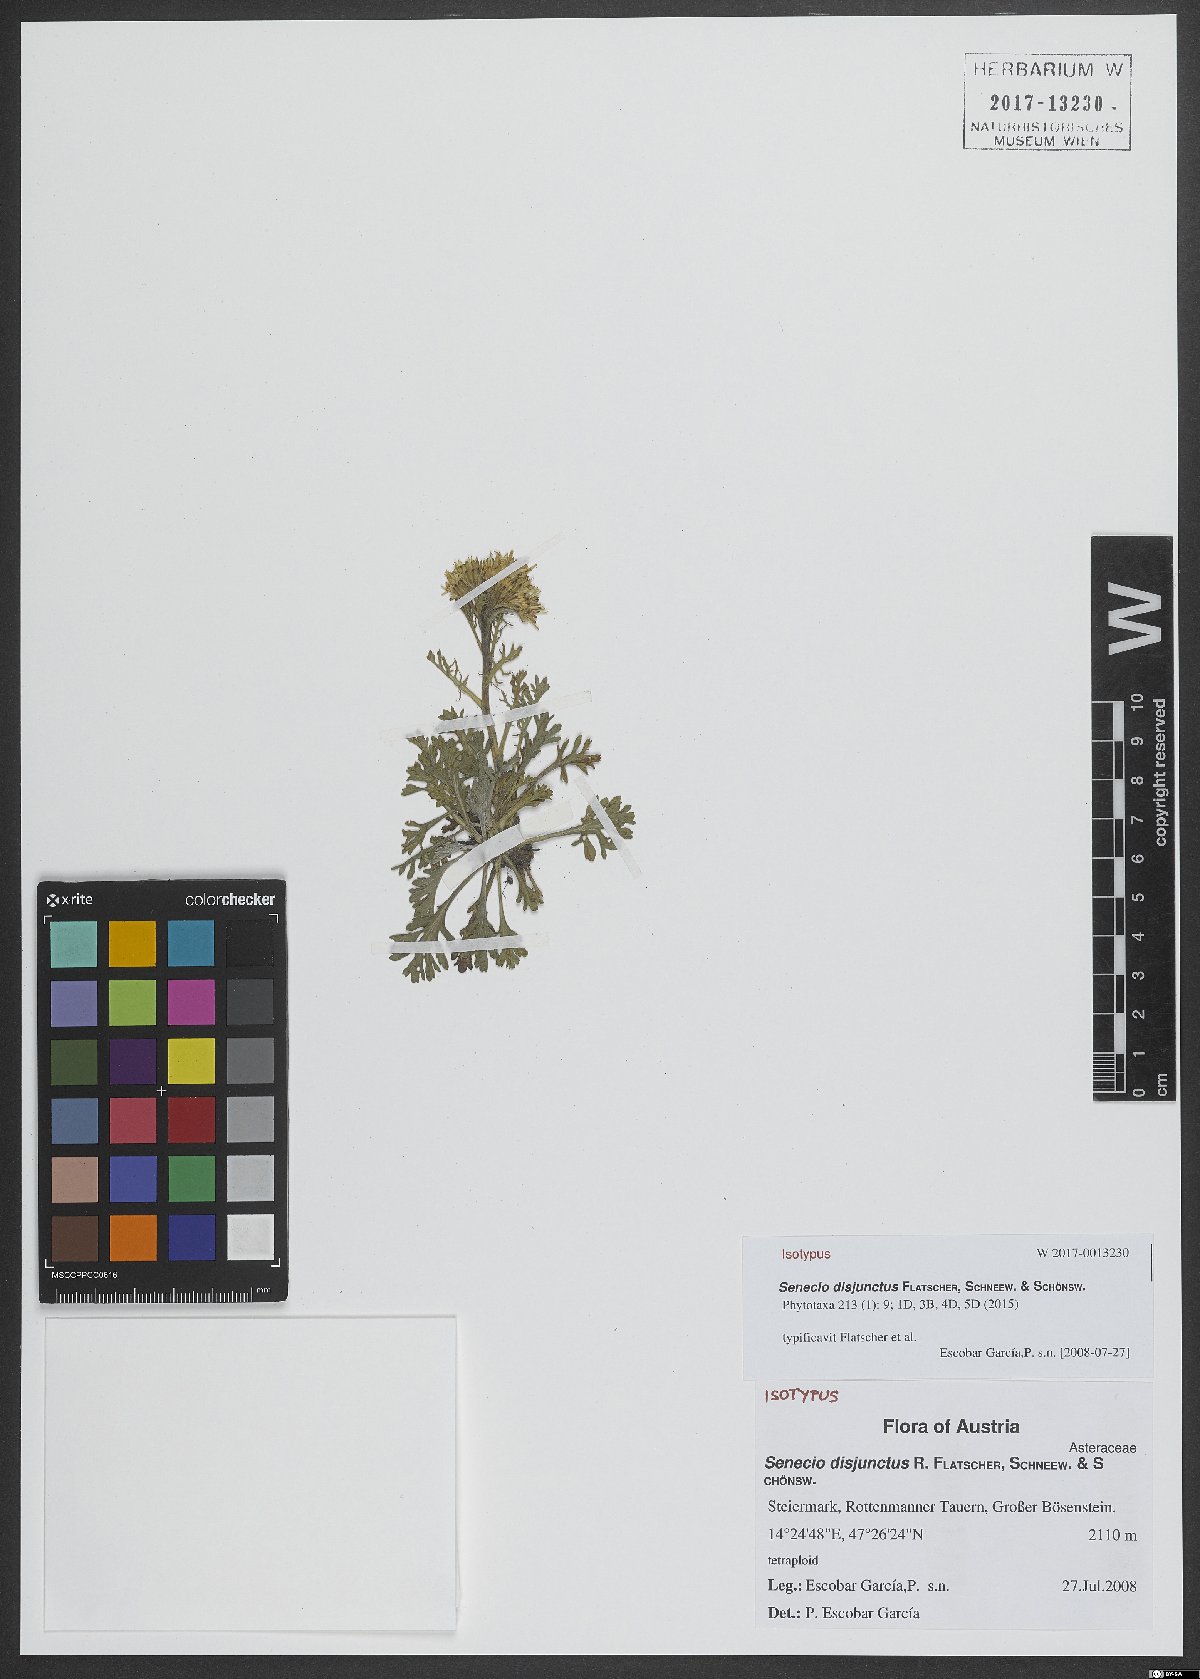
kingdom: Plantae
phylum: Tracheophyta
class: Magnoliopsida
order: Asterales
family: Asteraceae
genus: Jacobaea
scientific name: Jacobaea disjuncta
